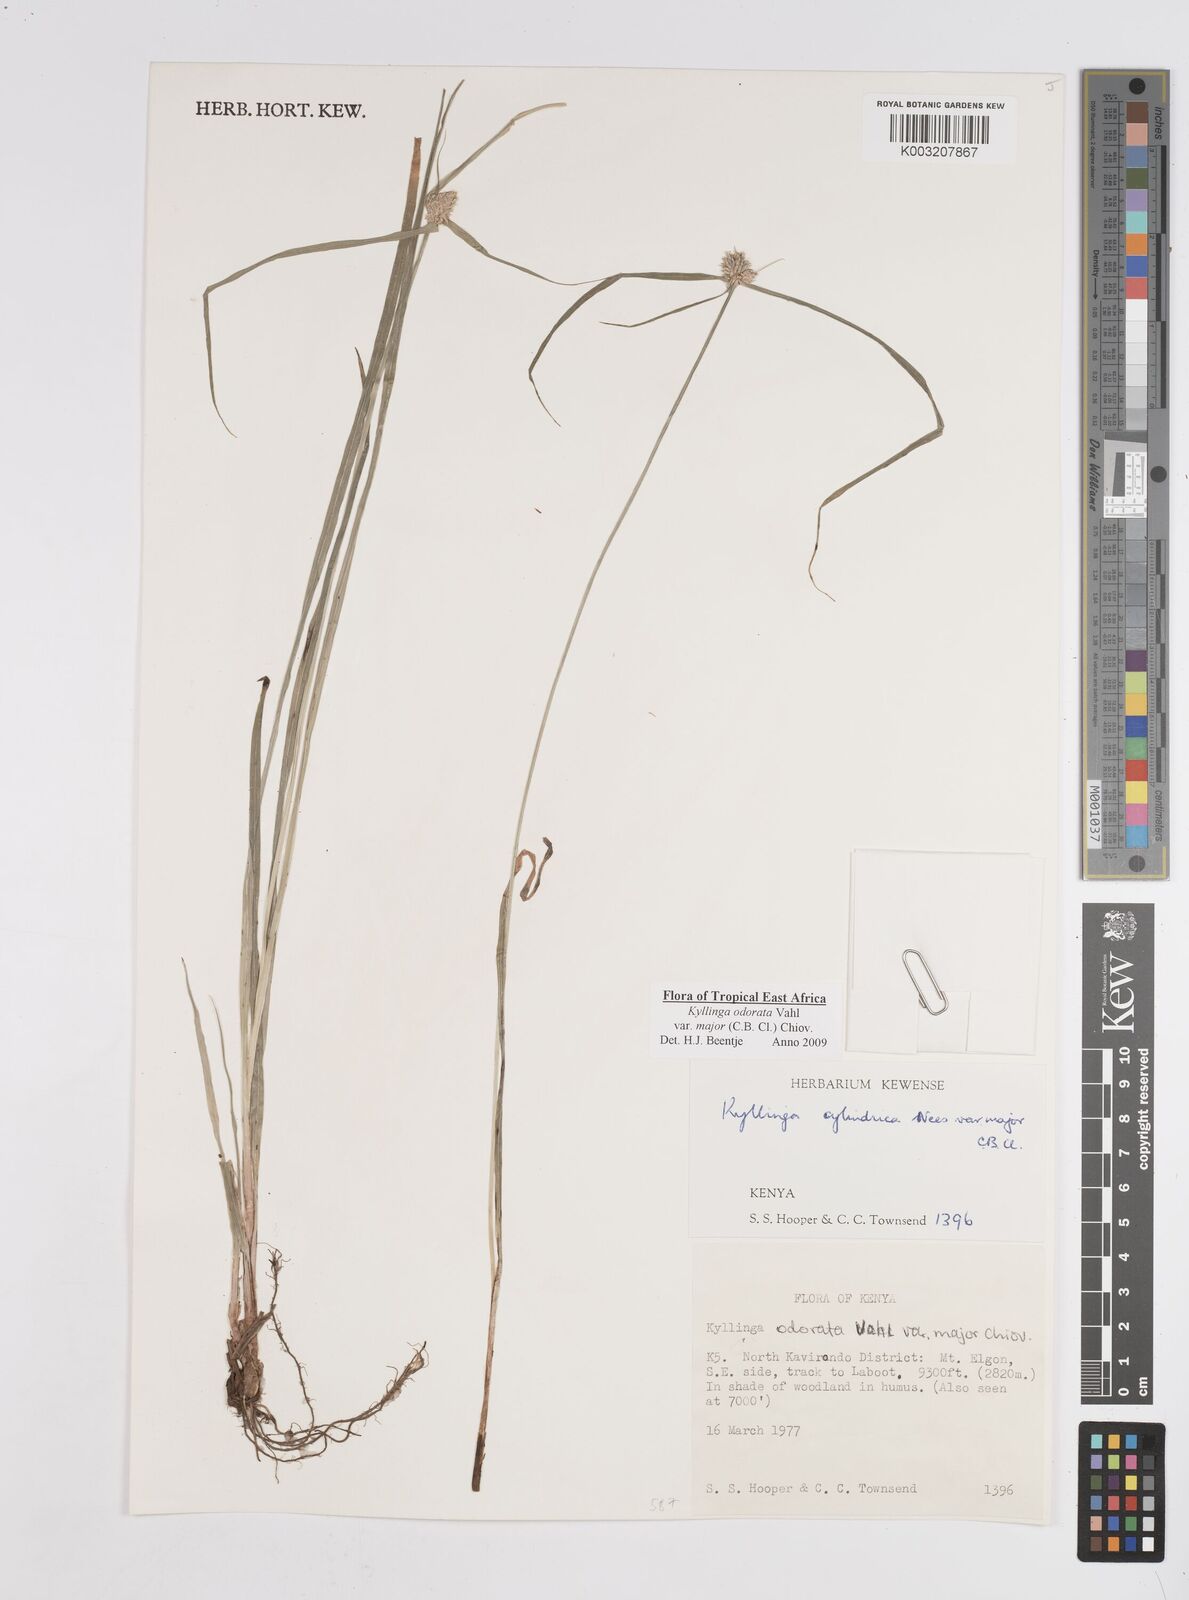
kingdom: Plantae
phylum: Tracheophyta
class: Liliopsida
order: Poales
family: Cyperaceae
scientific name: Cyperaceae
